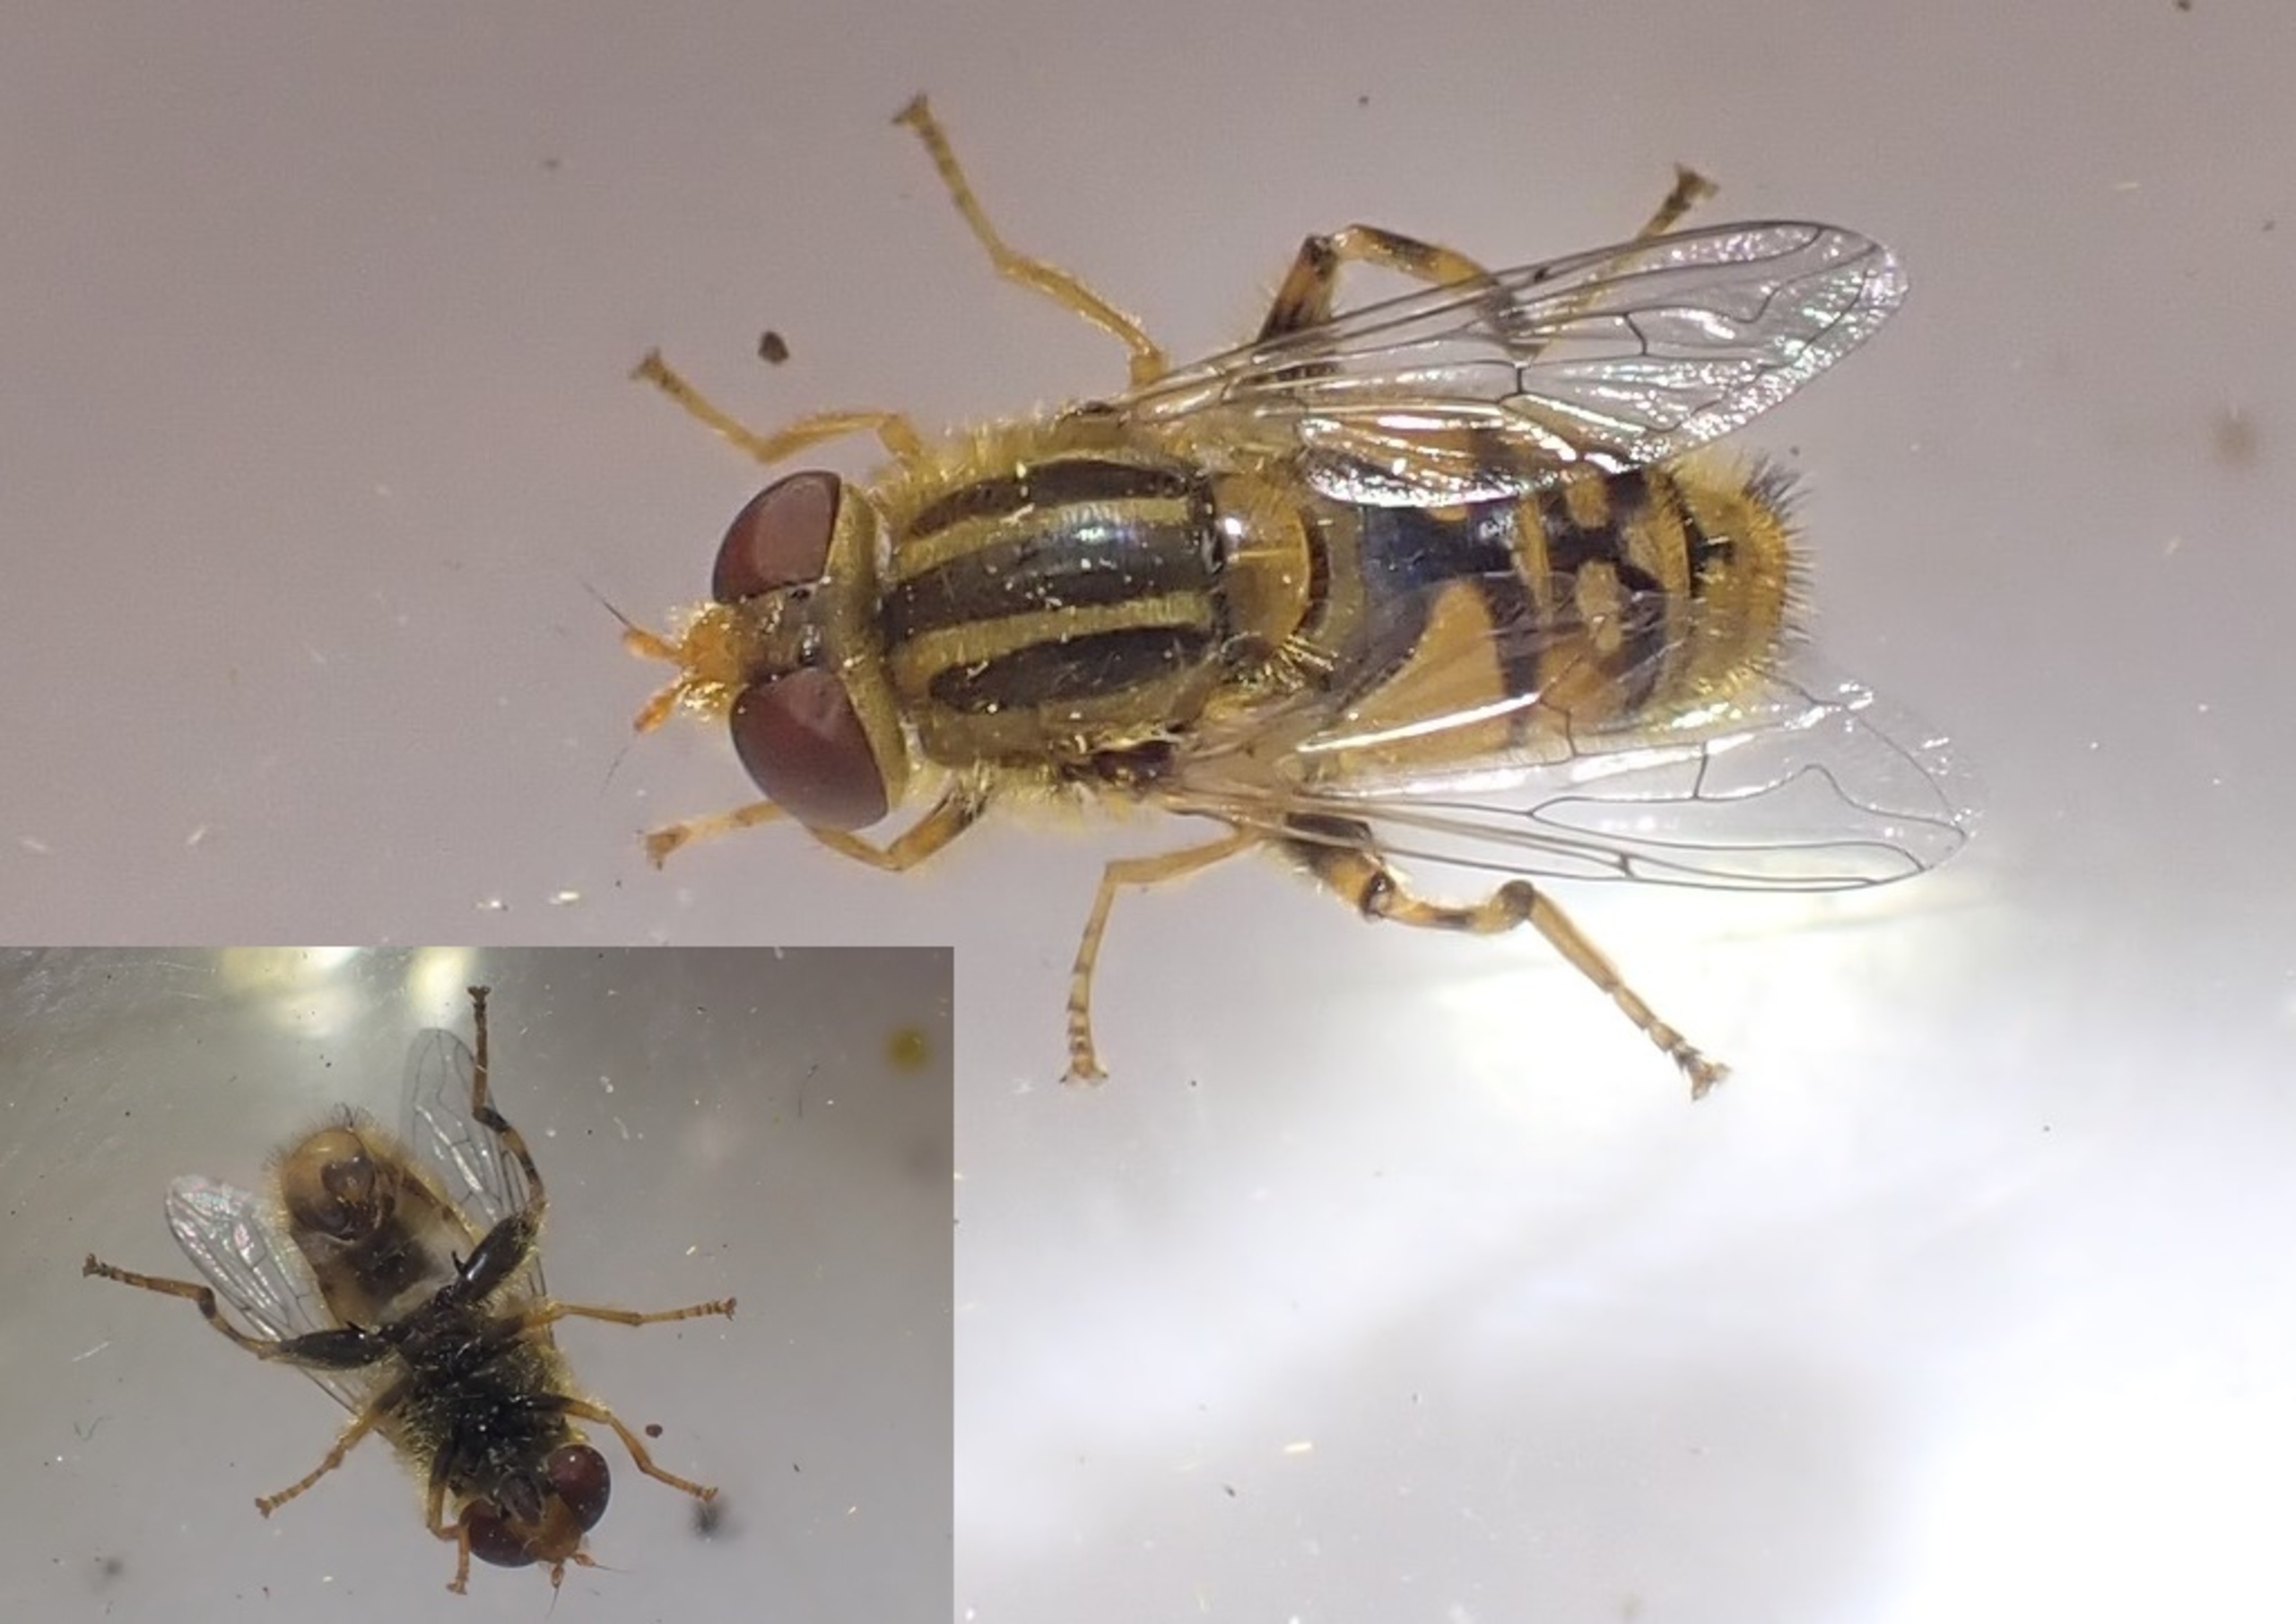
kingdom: Animalia
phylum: Arthropoda
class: Insecta
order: Diptera
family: Syrphidae
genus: Parhelophilus
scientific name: Parhelophilus frutetorum
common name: Krat-sumpsvirreflue
